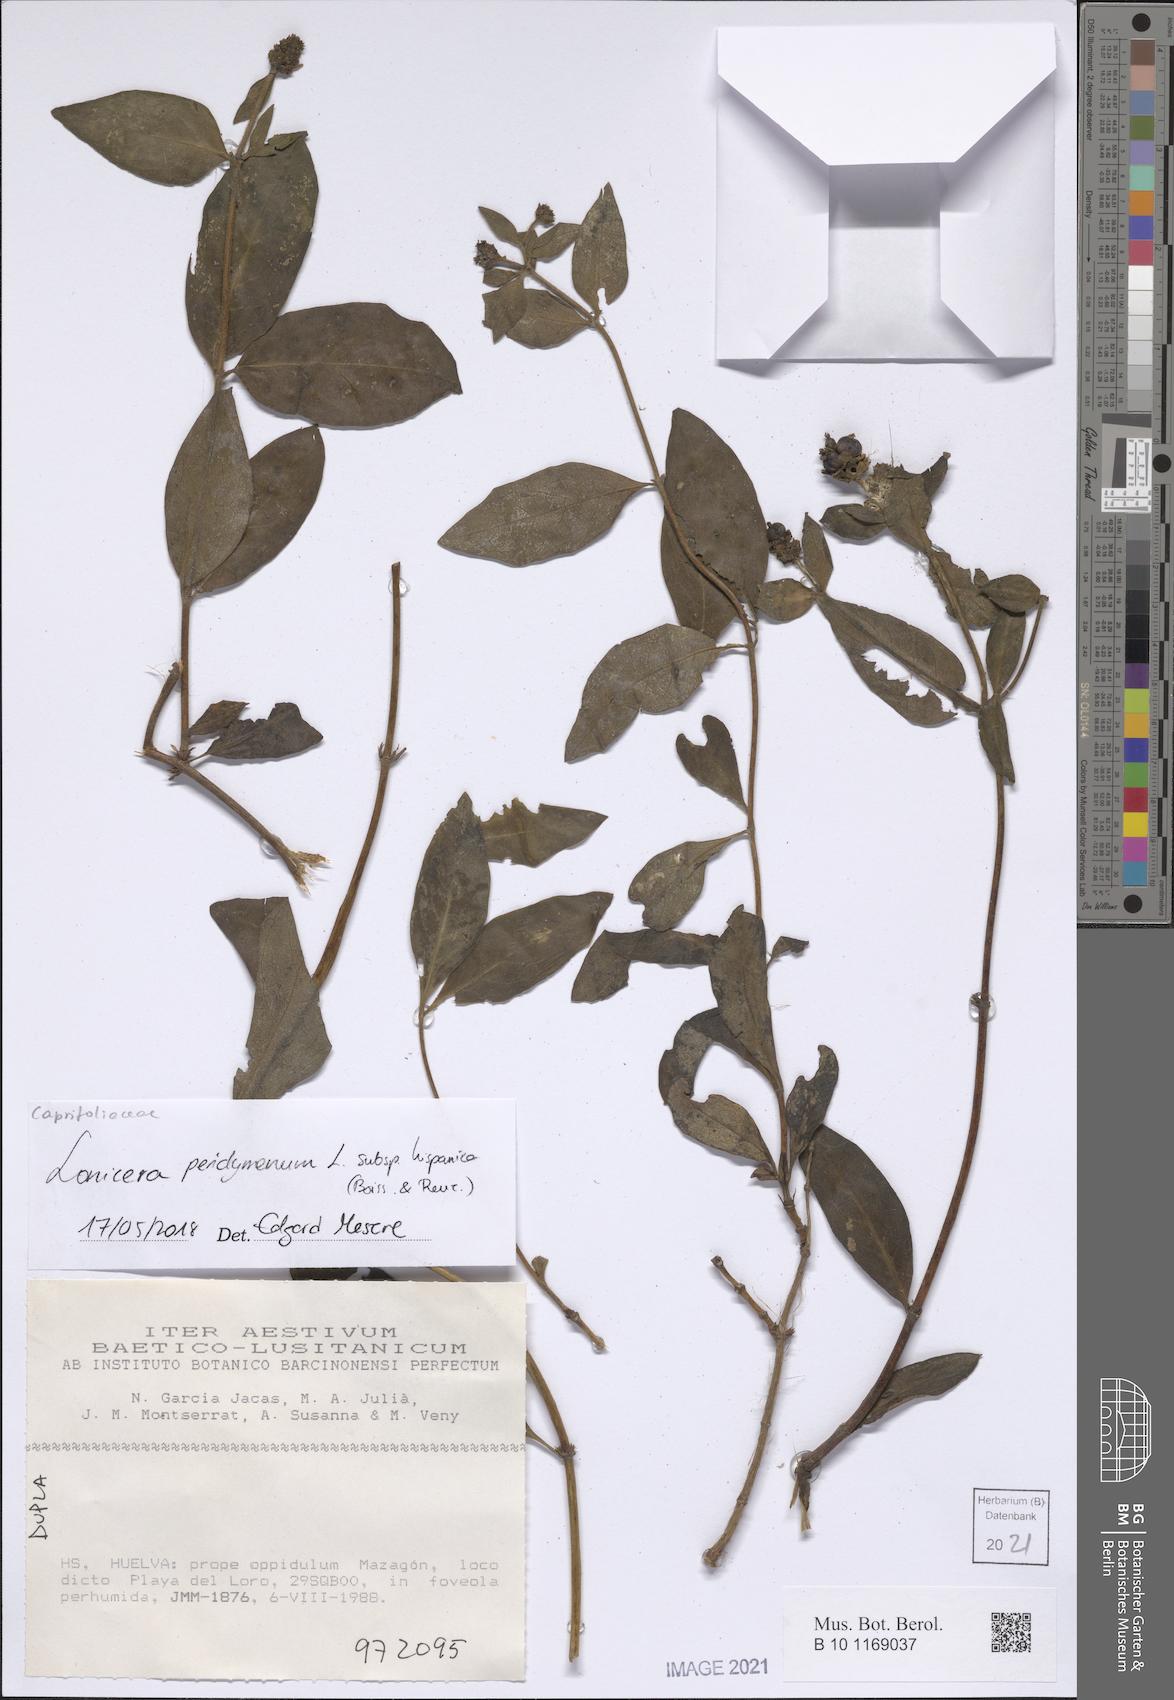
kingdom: Plantae
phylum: Tracheophyta
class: Magnoliopsida
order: Dipsacales
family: Caprifoliaceae
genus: Lonicera
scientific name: Lonicera periclymenum
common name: European honeysuckle
